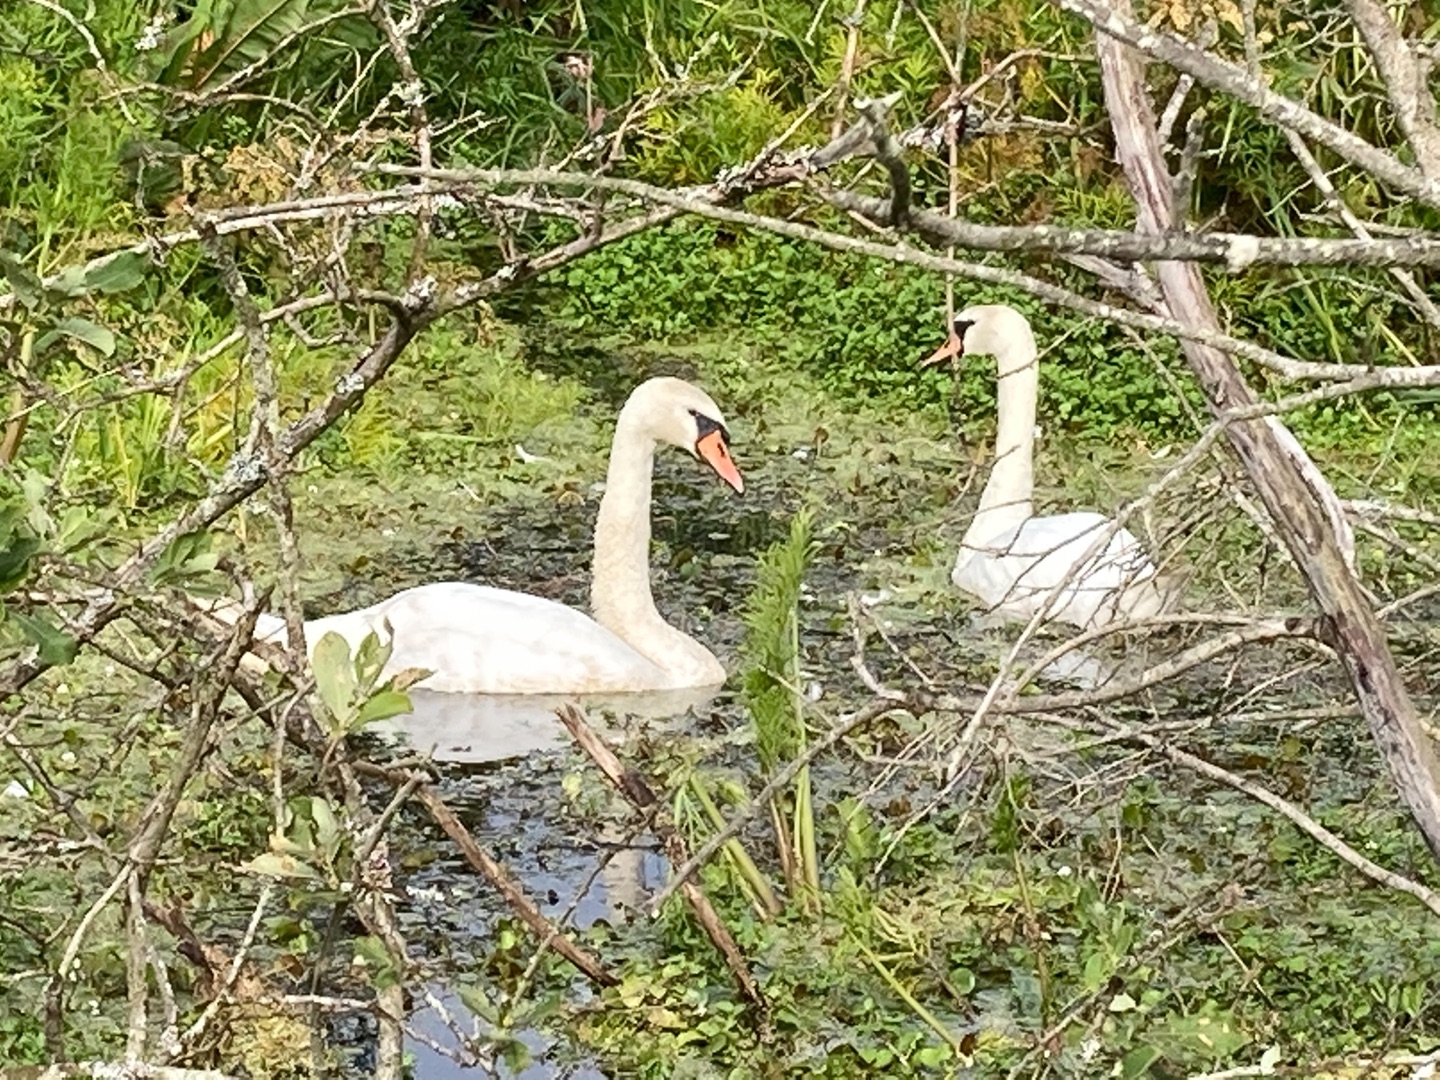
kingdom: Animalia
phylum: Chordata
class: Aves
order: Anseriformes
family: Anatidae
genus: Cygnus
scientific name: Cygnus olor
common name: Knopsvane
